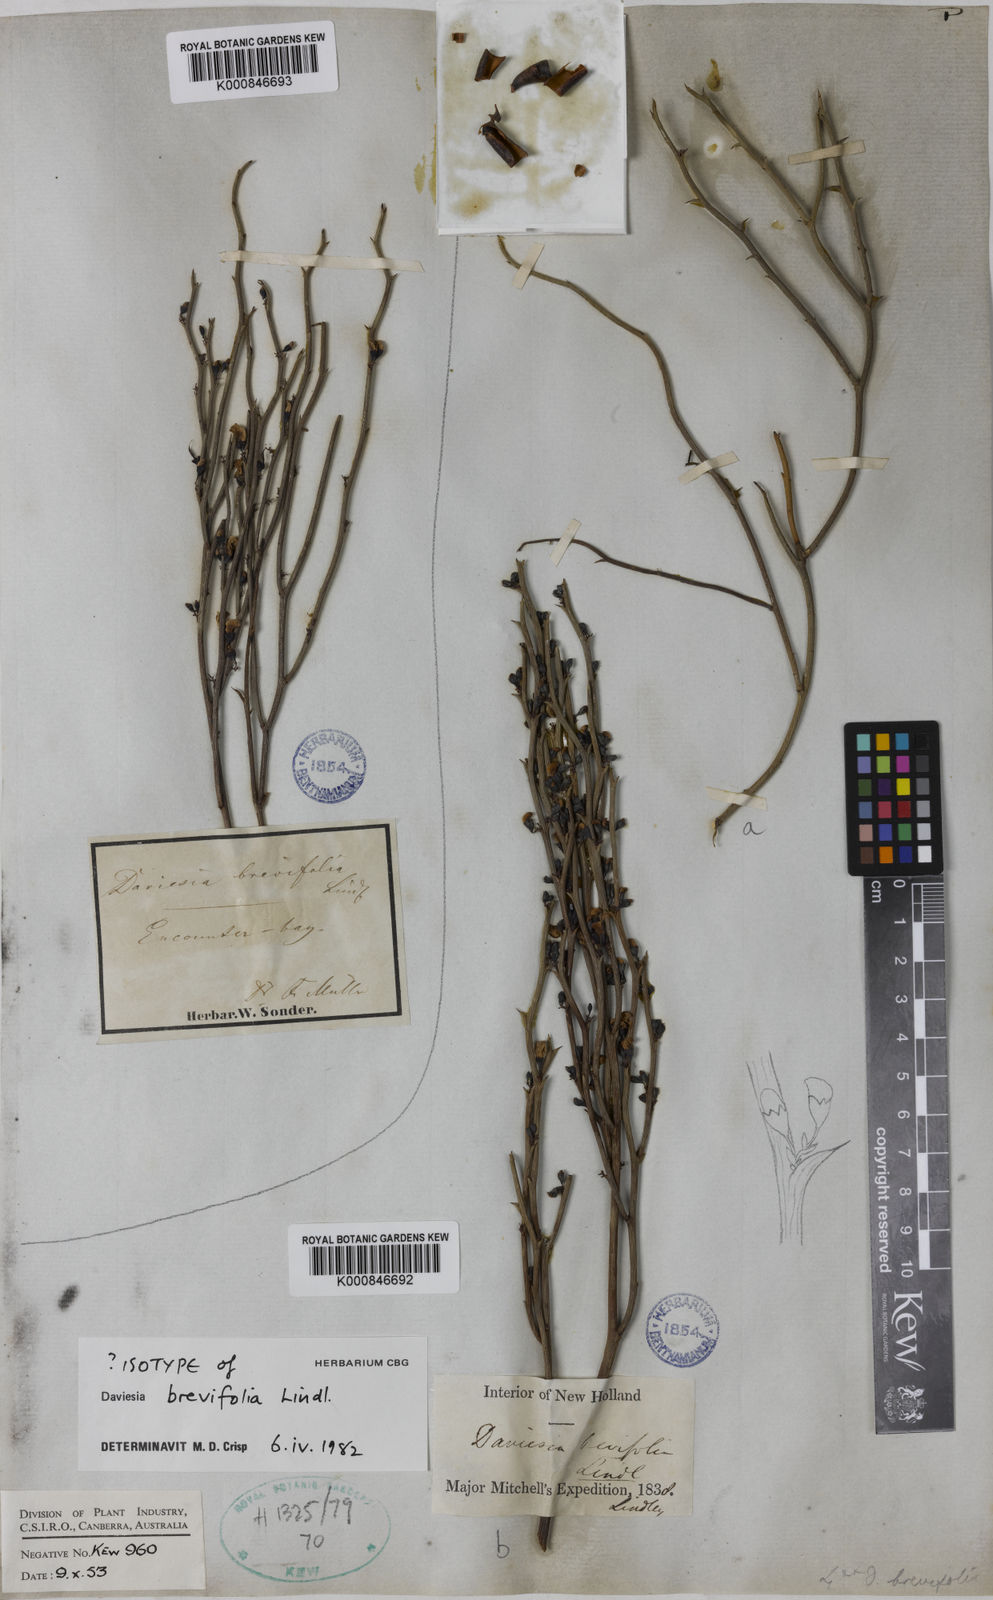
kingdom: Plantae
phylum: Tracheophyta
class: Magnoliopsida
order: Fabales
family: Fabaceae
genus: Daviesia
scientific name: Daviesia brevifolia
